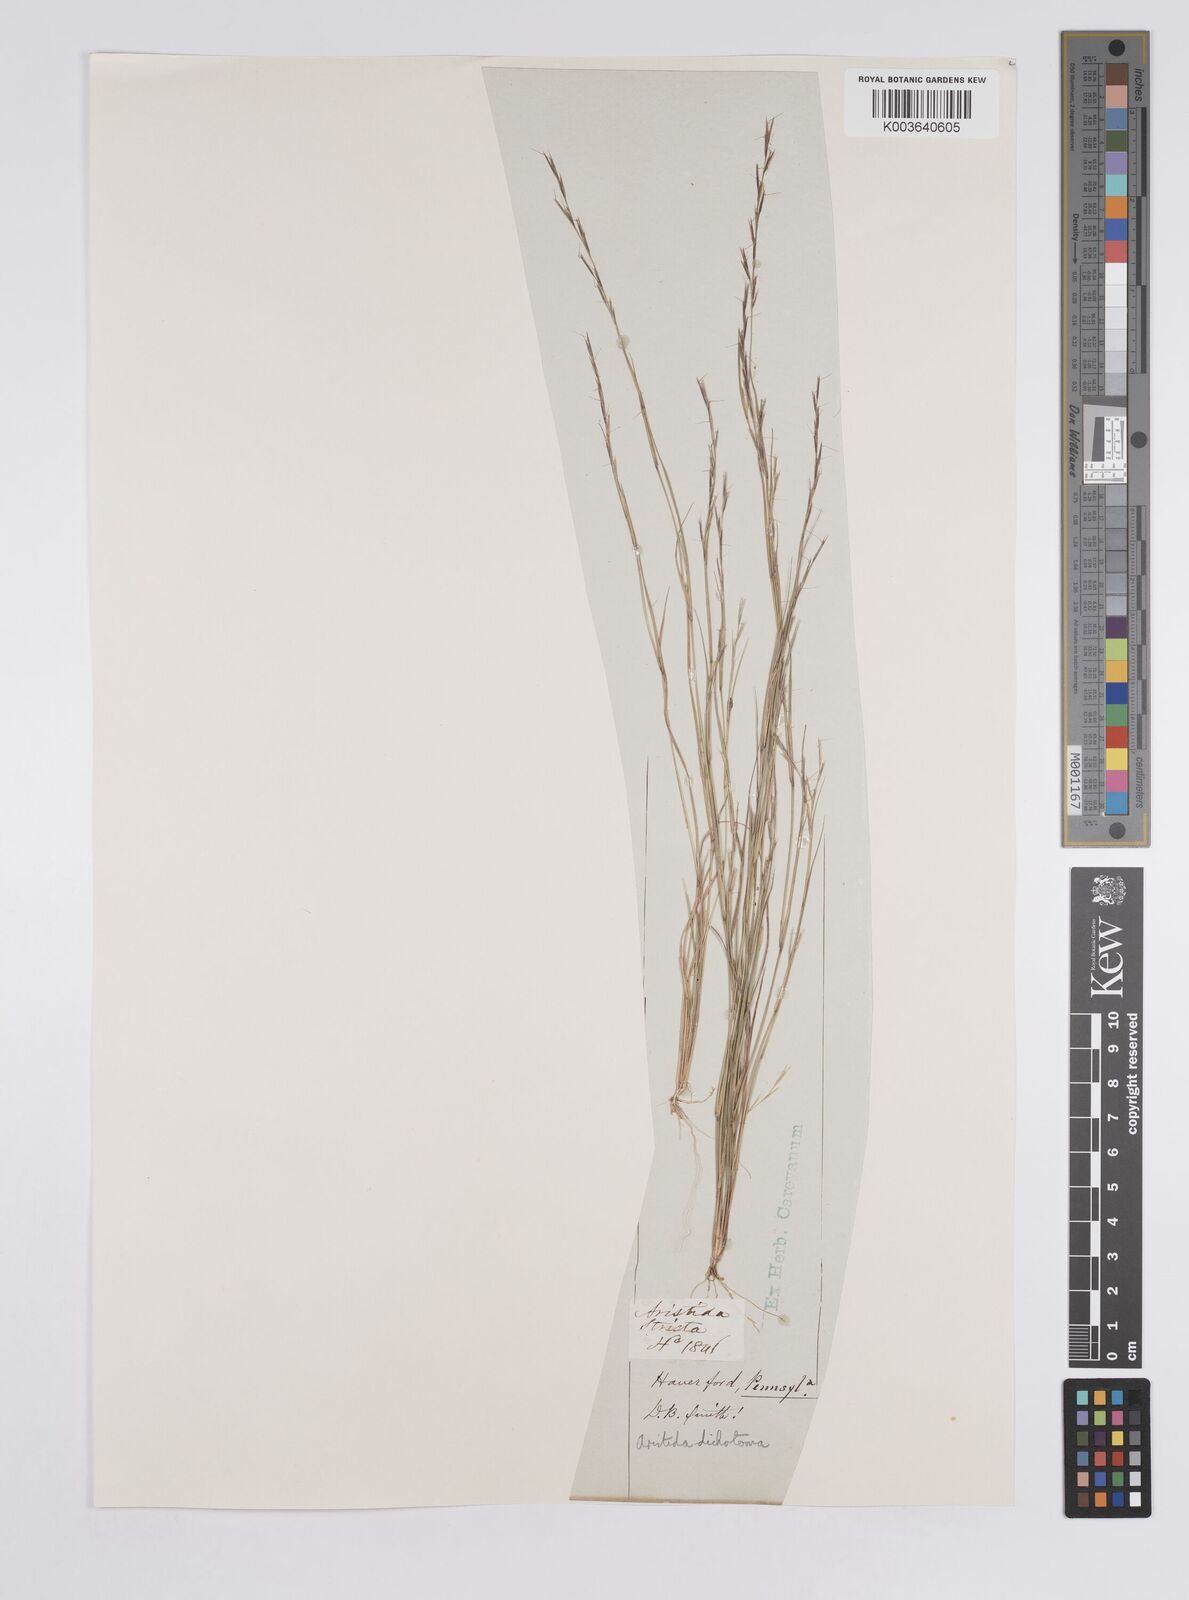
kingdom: Plantae
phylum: Tracheophyta
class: Liliopsida
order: Poales
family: Poaceae
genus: Aristida
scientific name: Aristida dichotoma
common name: Churchmouse three-awn
